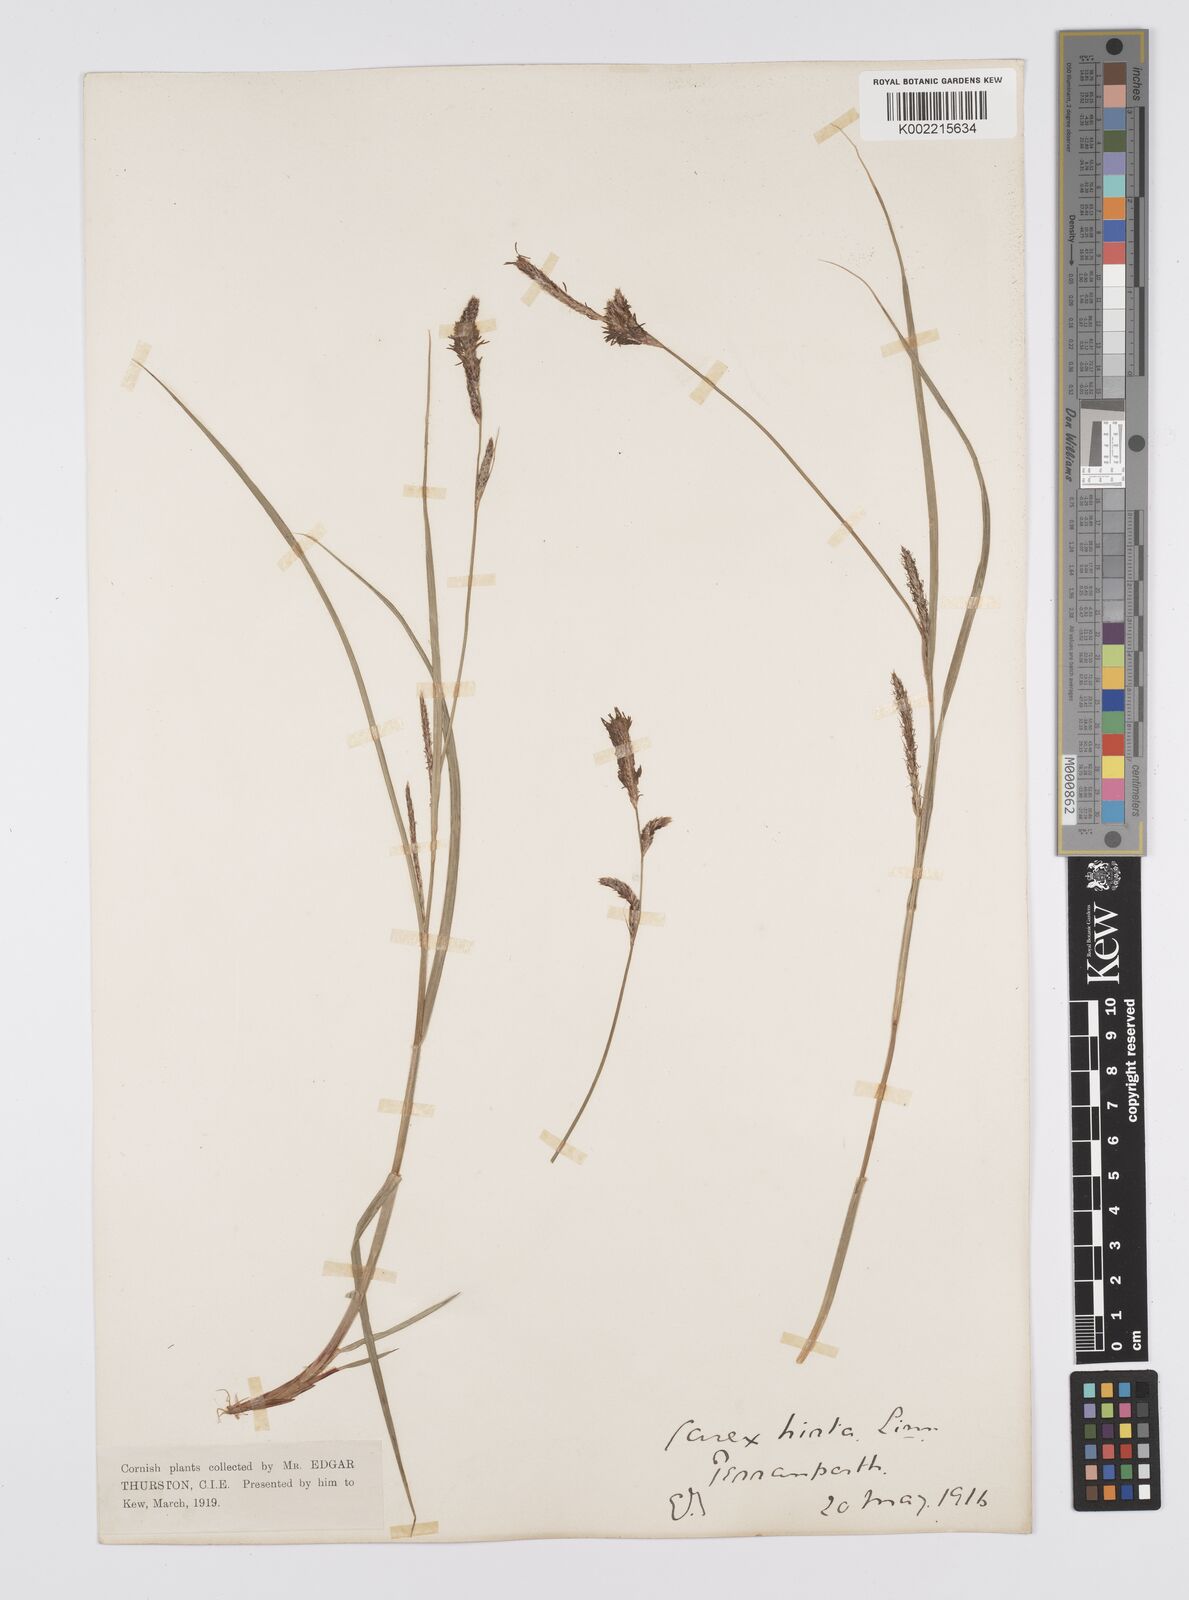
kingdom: Plantae
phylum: Tracheophyta
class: Liliopsida
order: Poales
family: Cyperaceae
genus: Carex
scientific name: Carex hirta
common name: Hairy sedge
